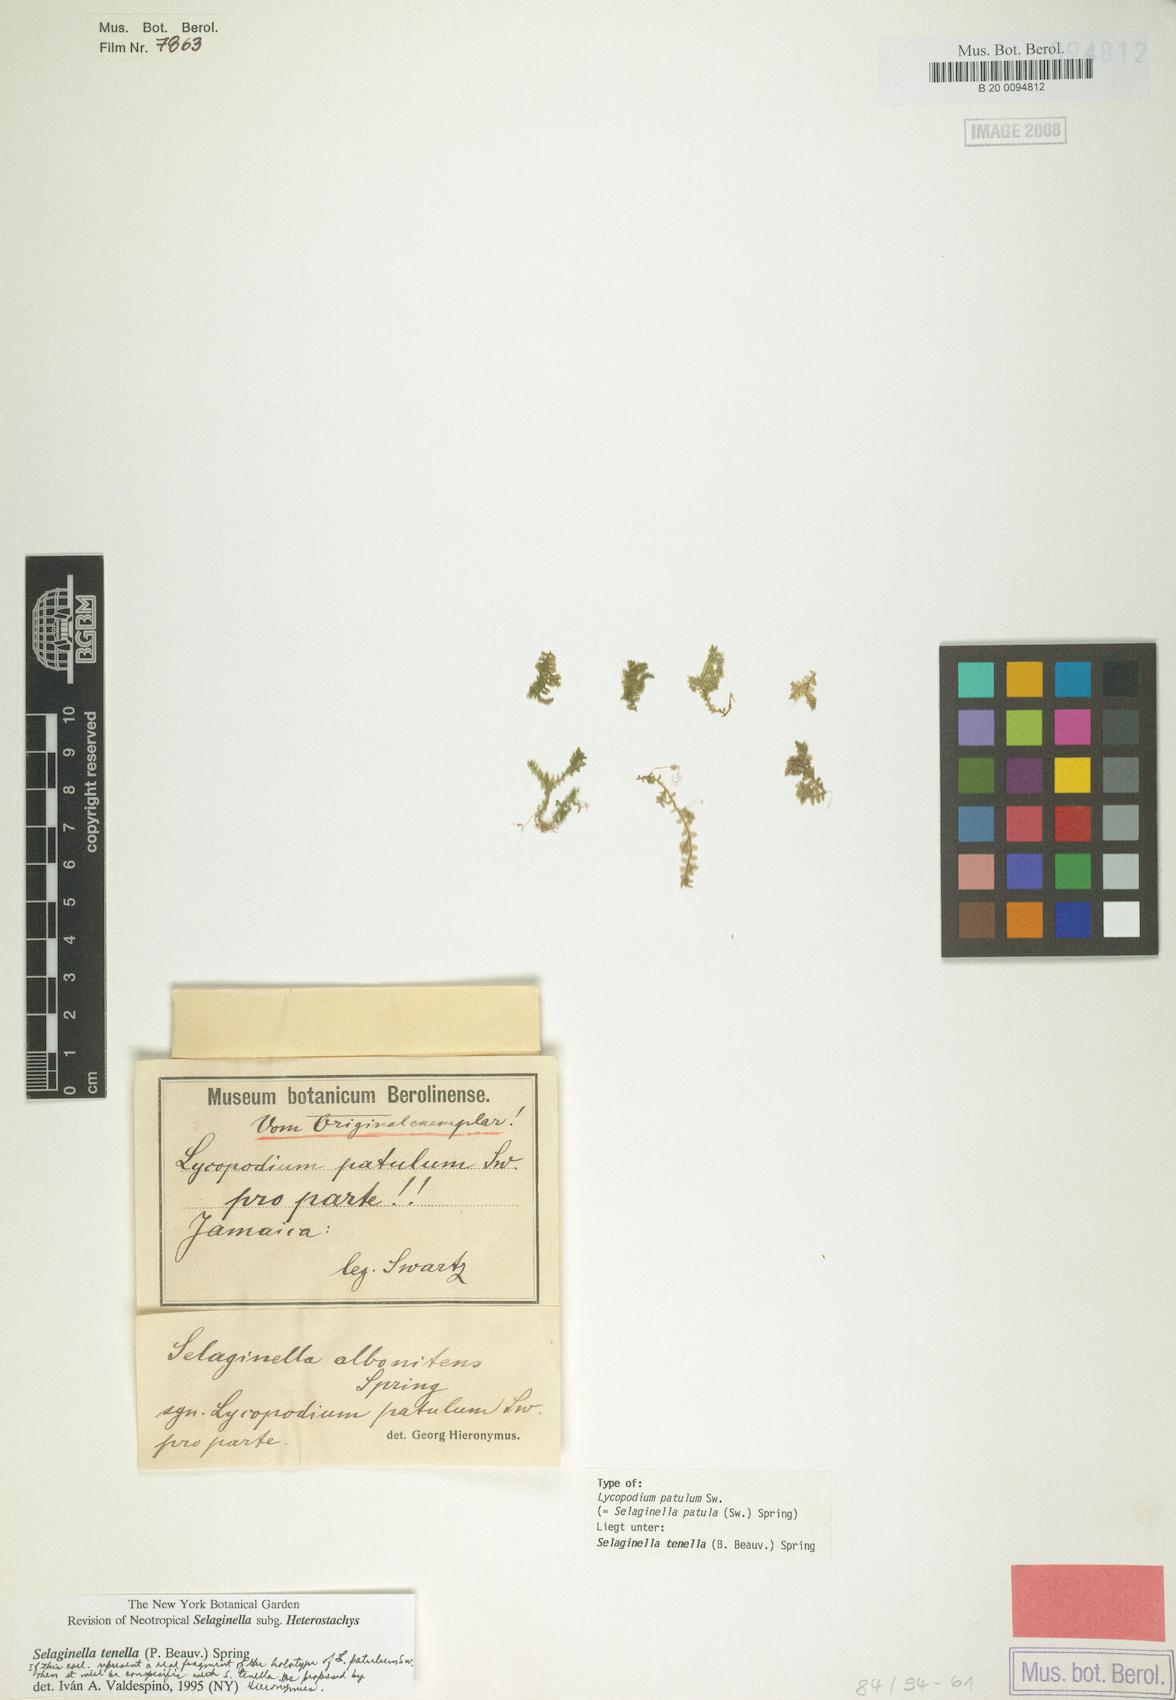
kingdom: Plantae
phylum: Tracheophyta
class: Lycopodiopsida
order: Selaginellales
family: Selaginellaceae
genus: Selaginella
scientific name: Selaginella tenella
